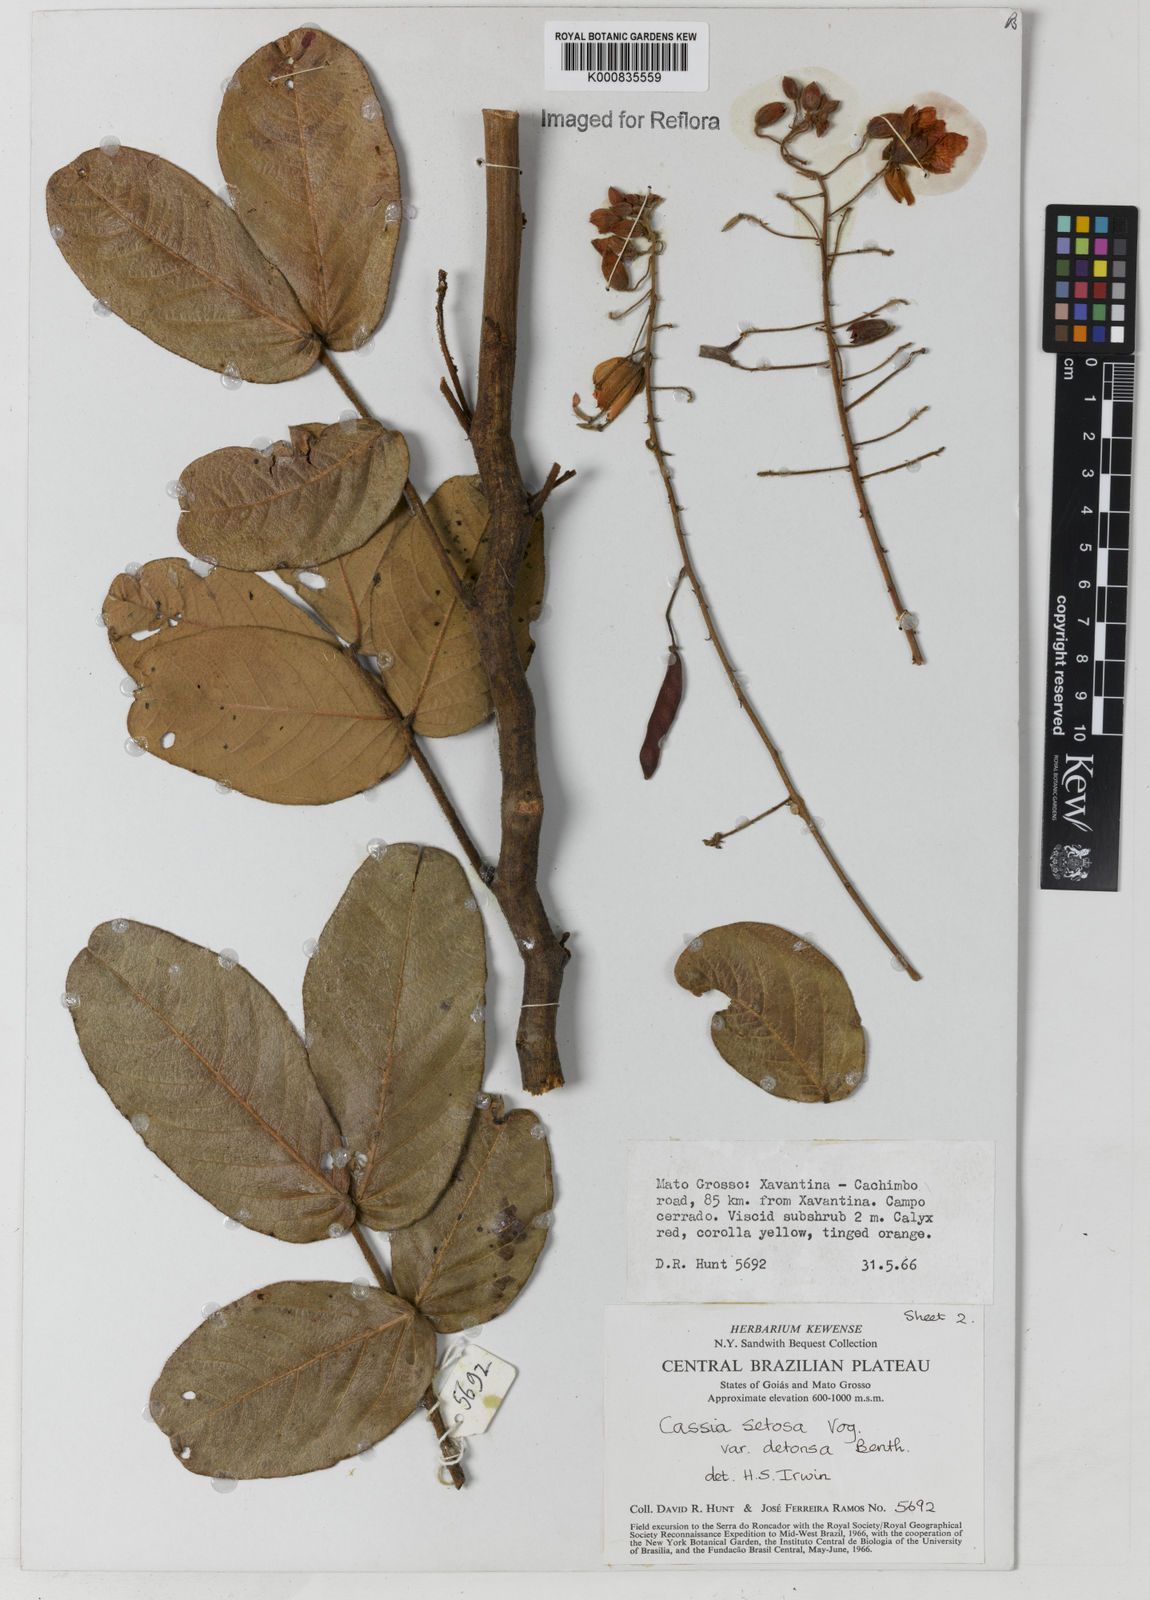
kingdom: Plantae
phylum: Tracheophyta
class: Magnoliopsida
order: Fabales
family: Fabaceae
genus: Chamaecrista
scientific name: Chamaecrista setosa
